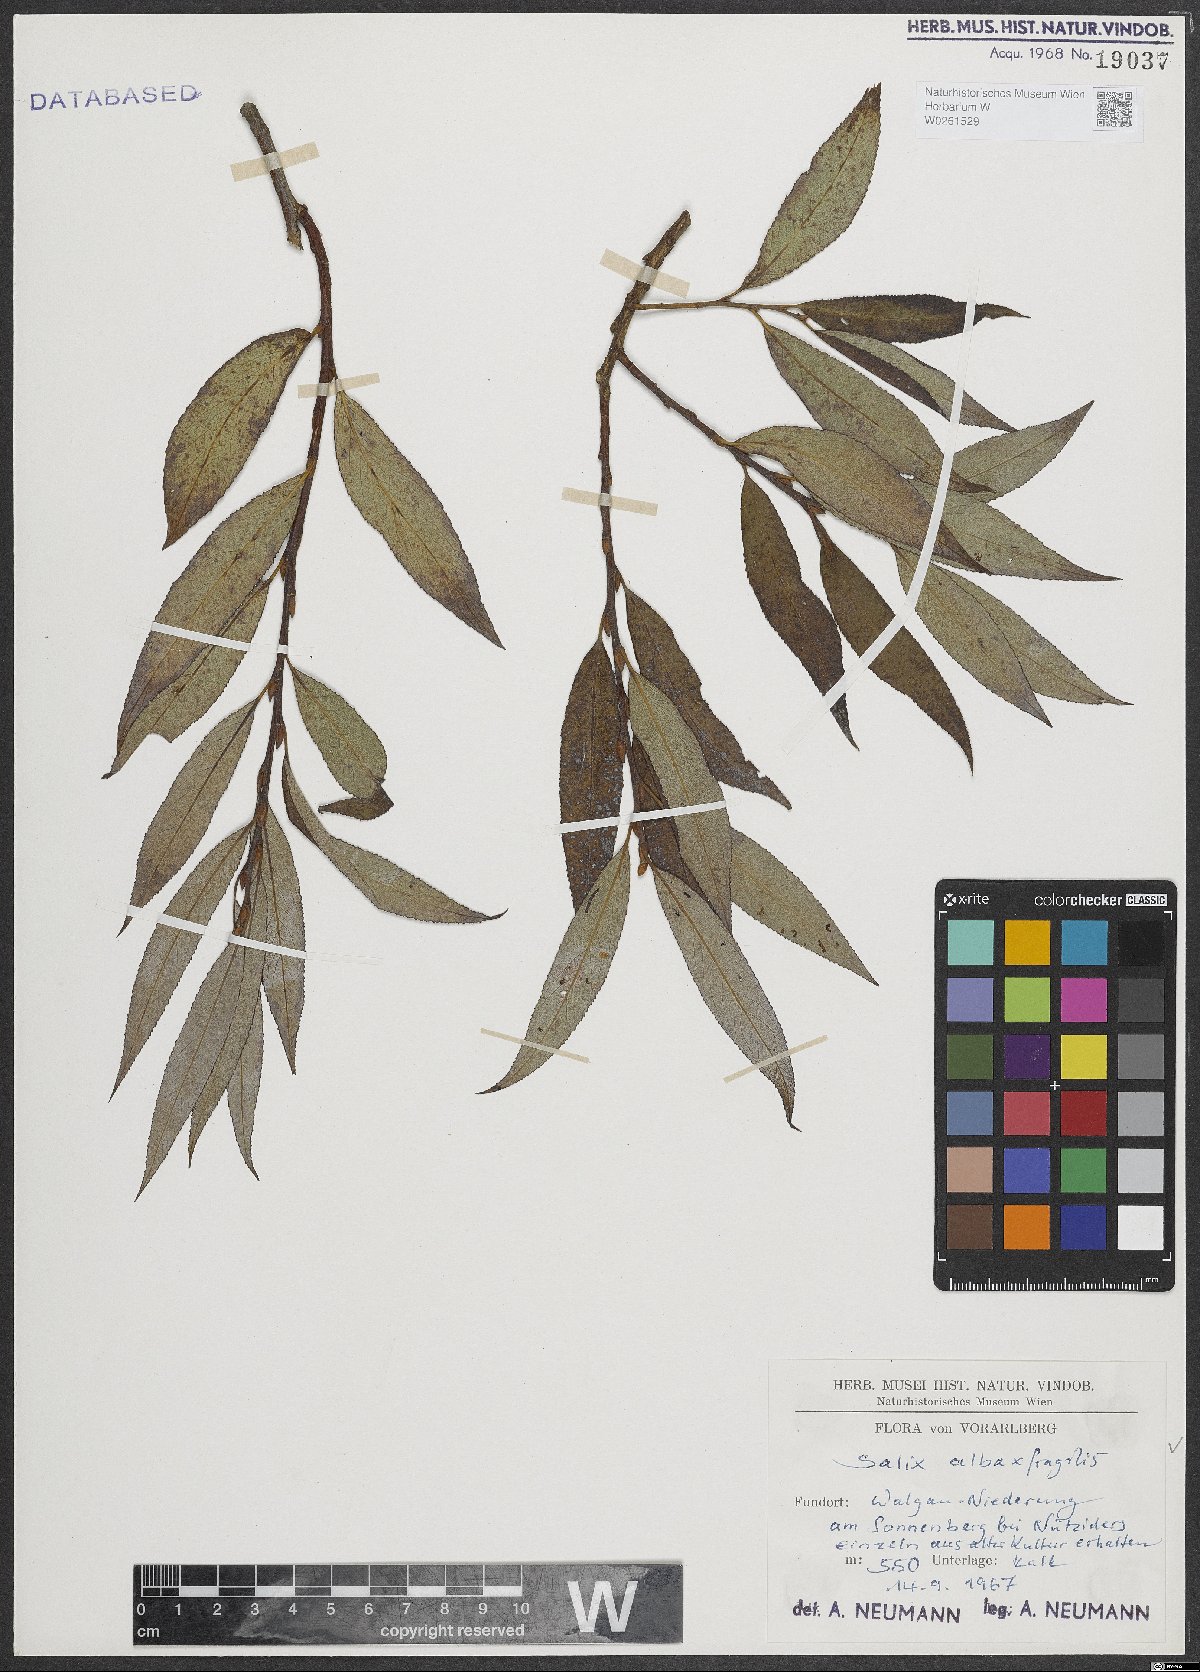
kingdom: Plantae
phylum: Tracheophyta
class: Magnoliopsida
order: Malpighiales
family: Salicaceae
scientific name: Salicaceae
